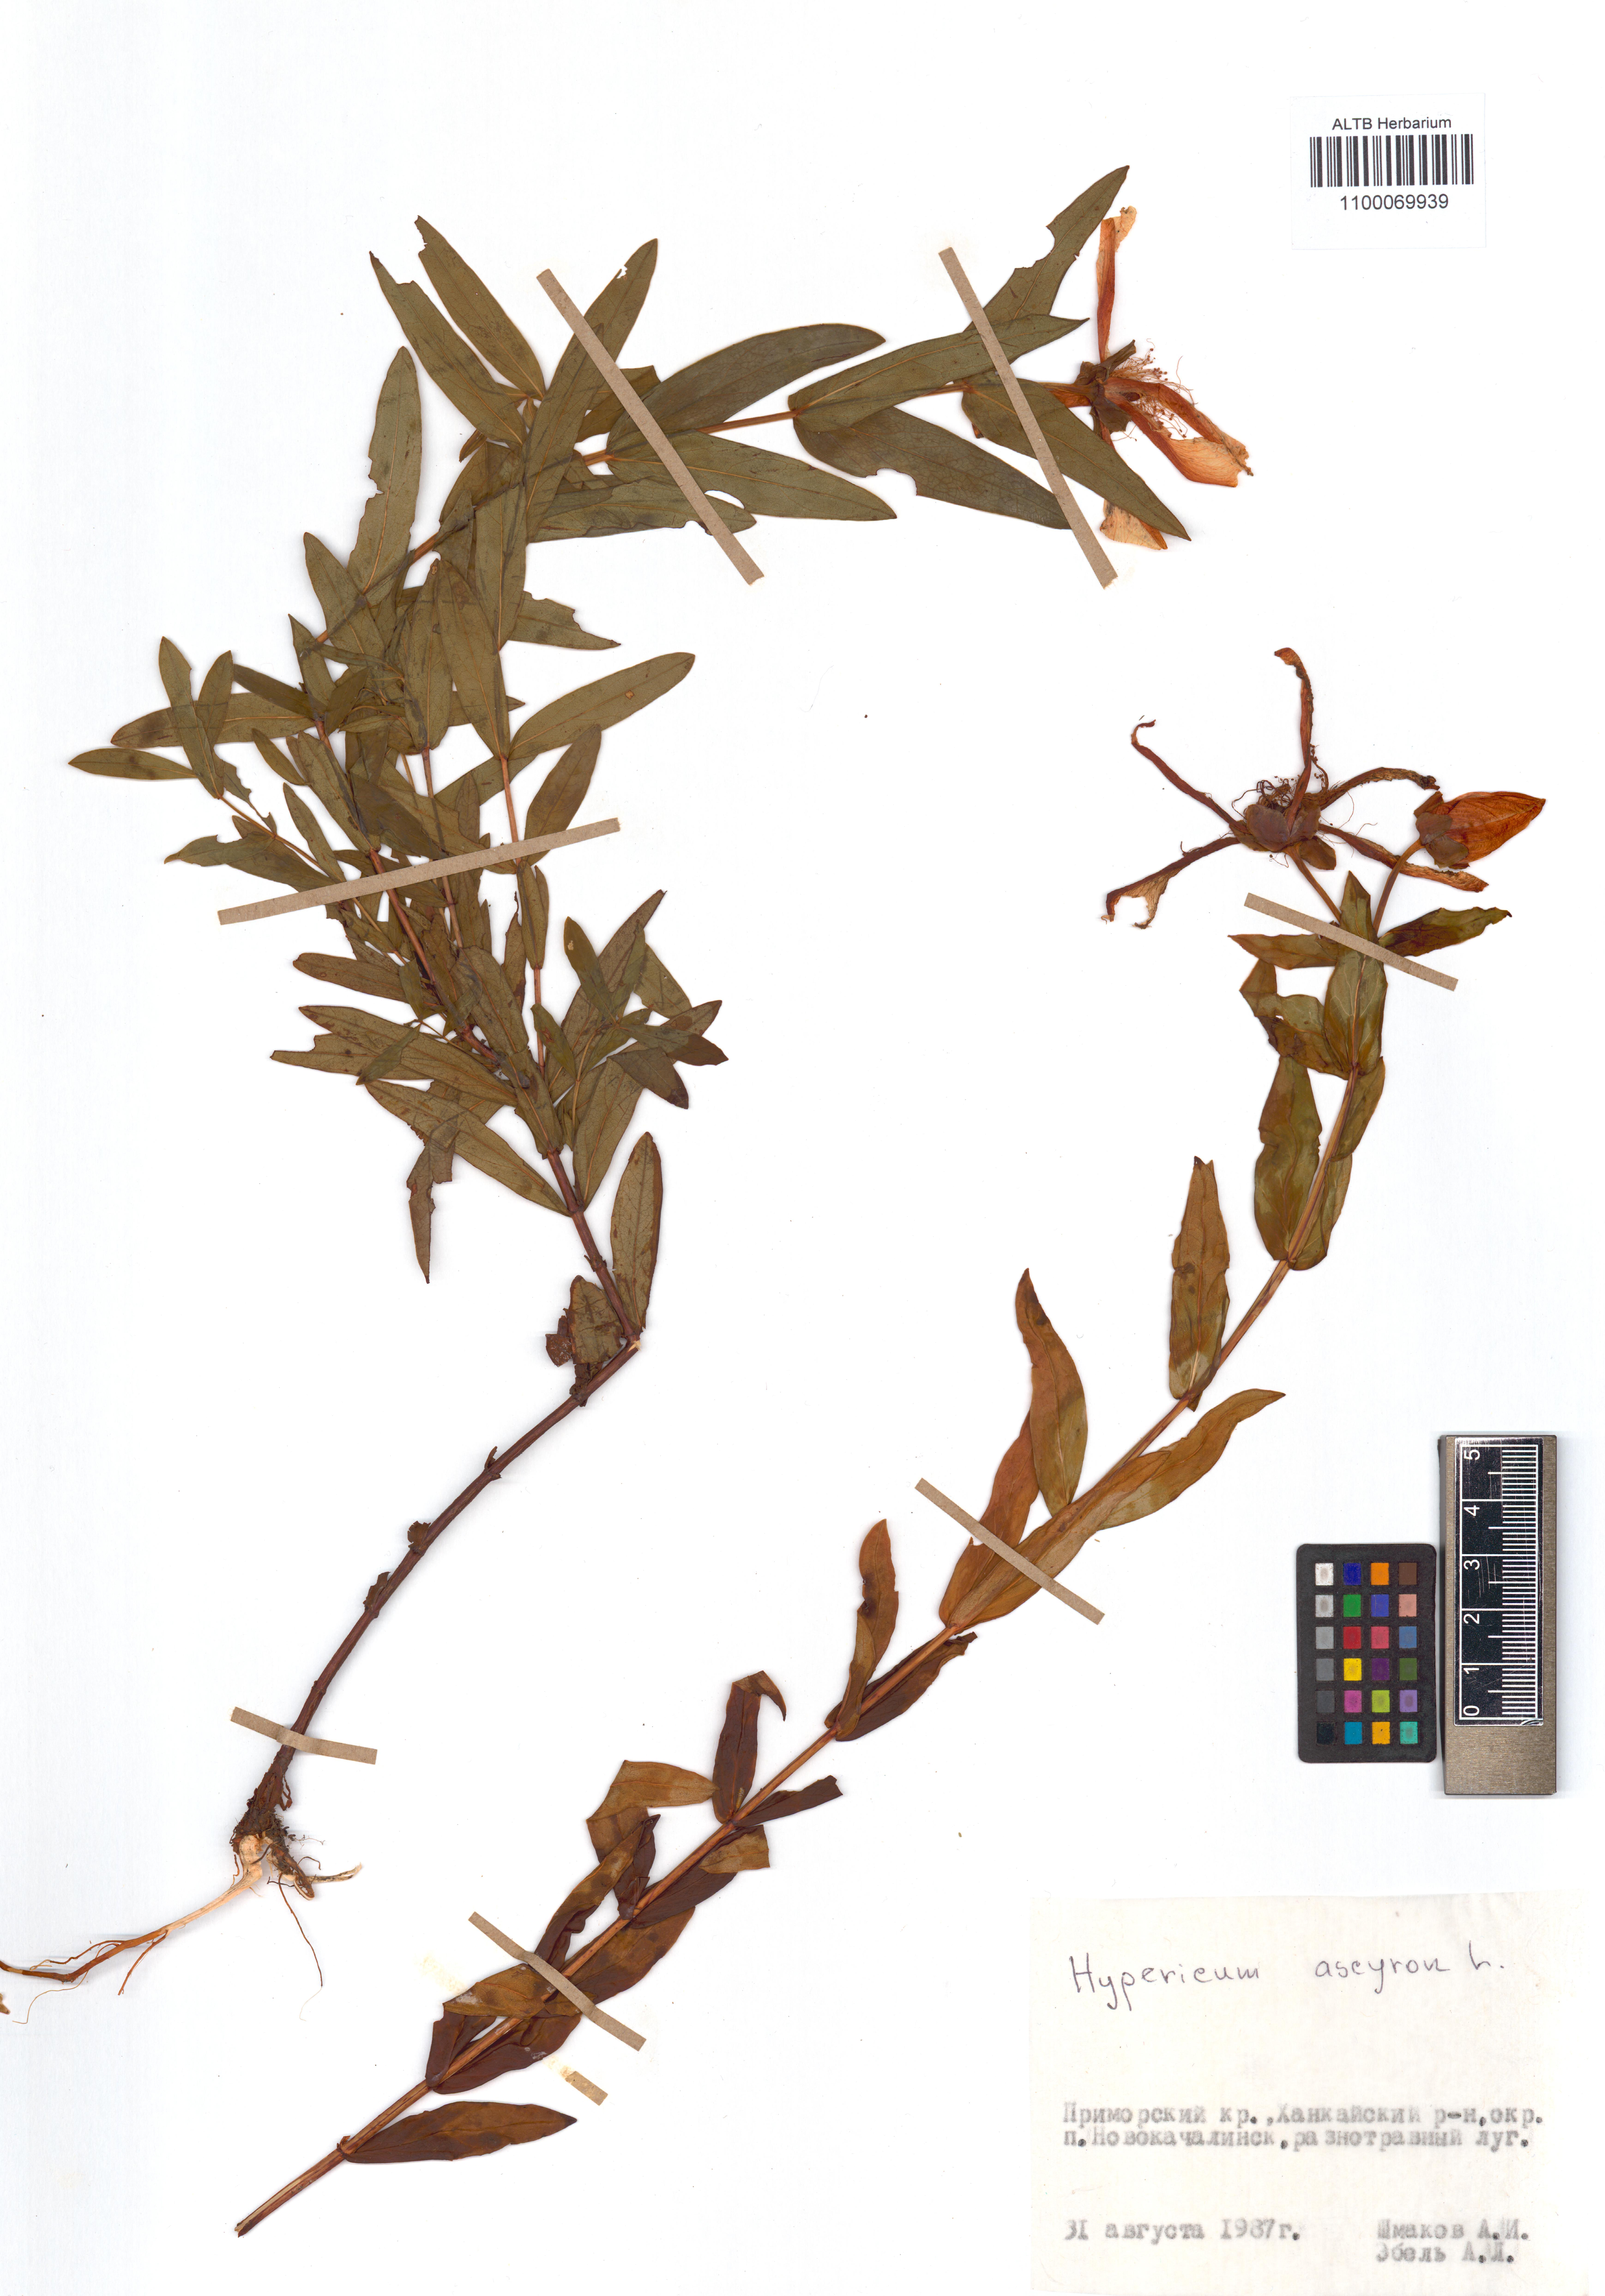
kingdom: Plantae
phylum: Tracheophyta
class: Magnoliopsida
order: Malpighiales
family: Hypericaceae
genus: Hypericum
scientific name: Hypericum ascyron
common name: Giant st. john's-wort
